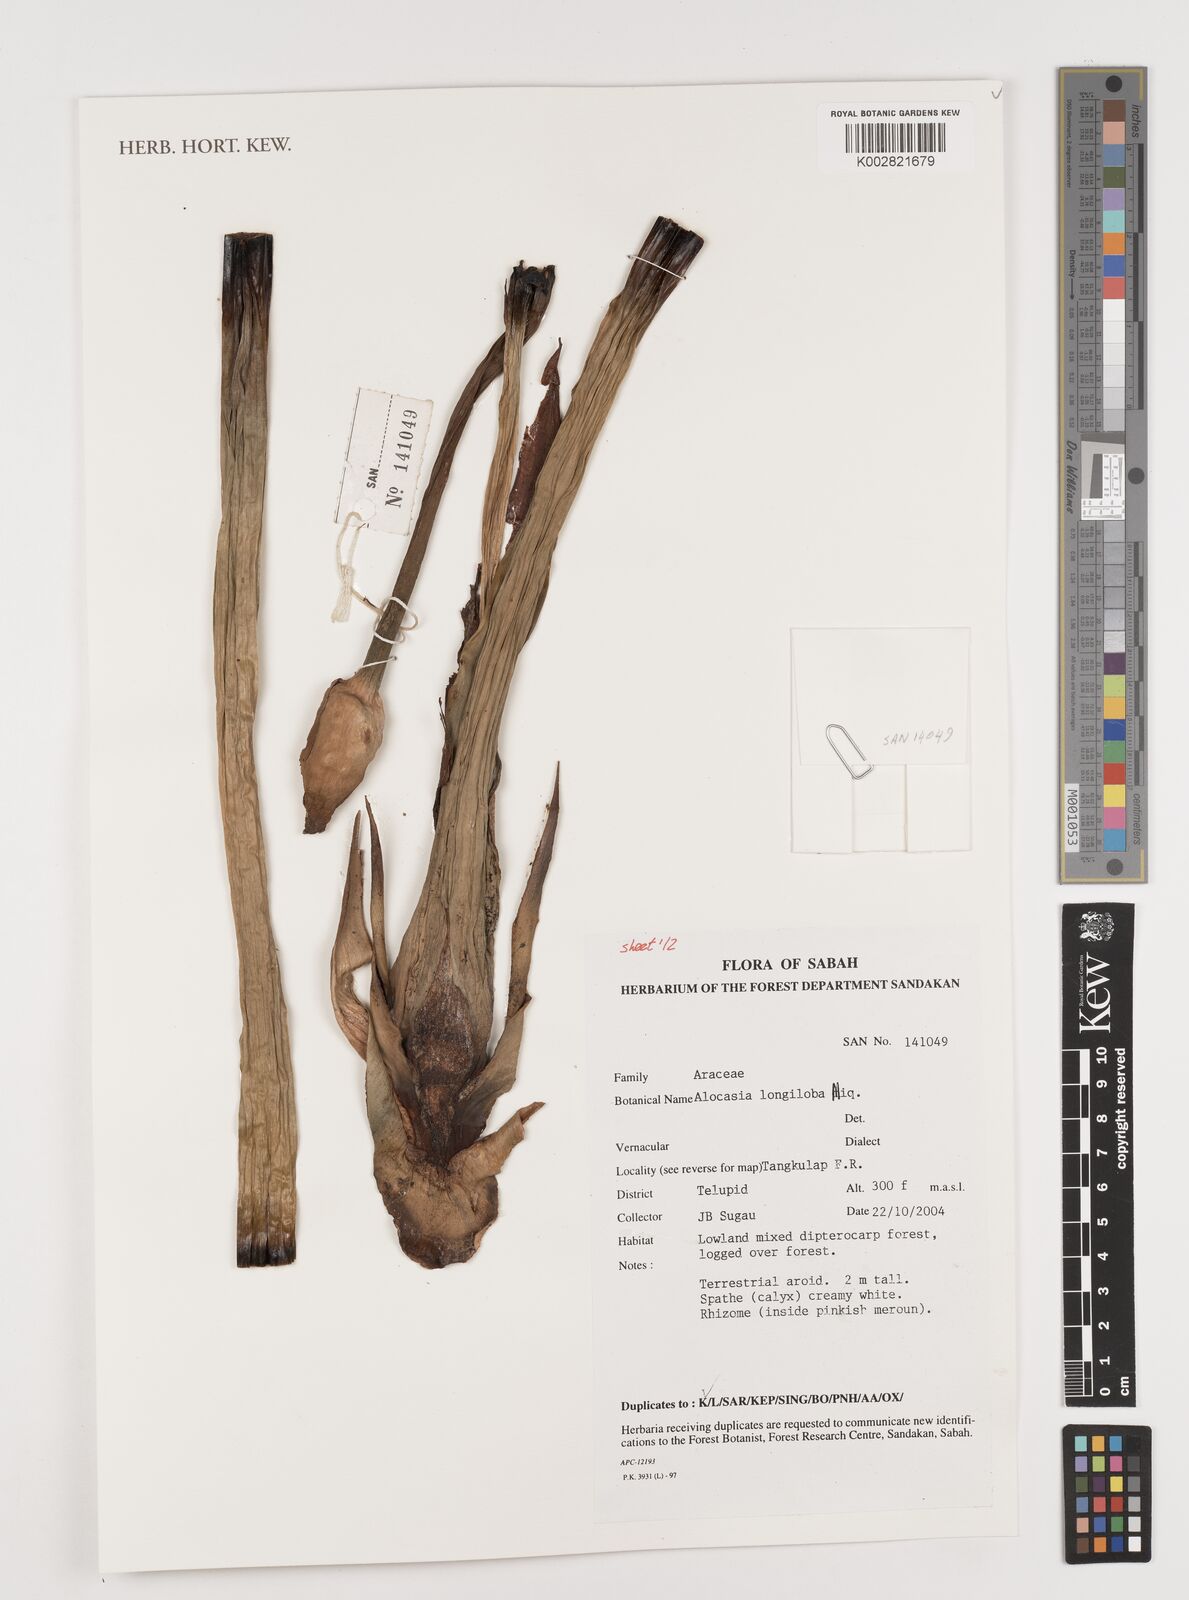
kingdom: Plantae
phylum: Tracheophyta
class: Liliopsida
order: Alismatales
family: Araceae
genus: Alocasia
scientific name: Alocasia longiloba
